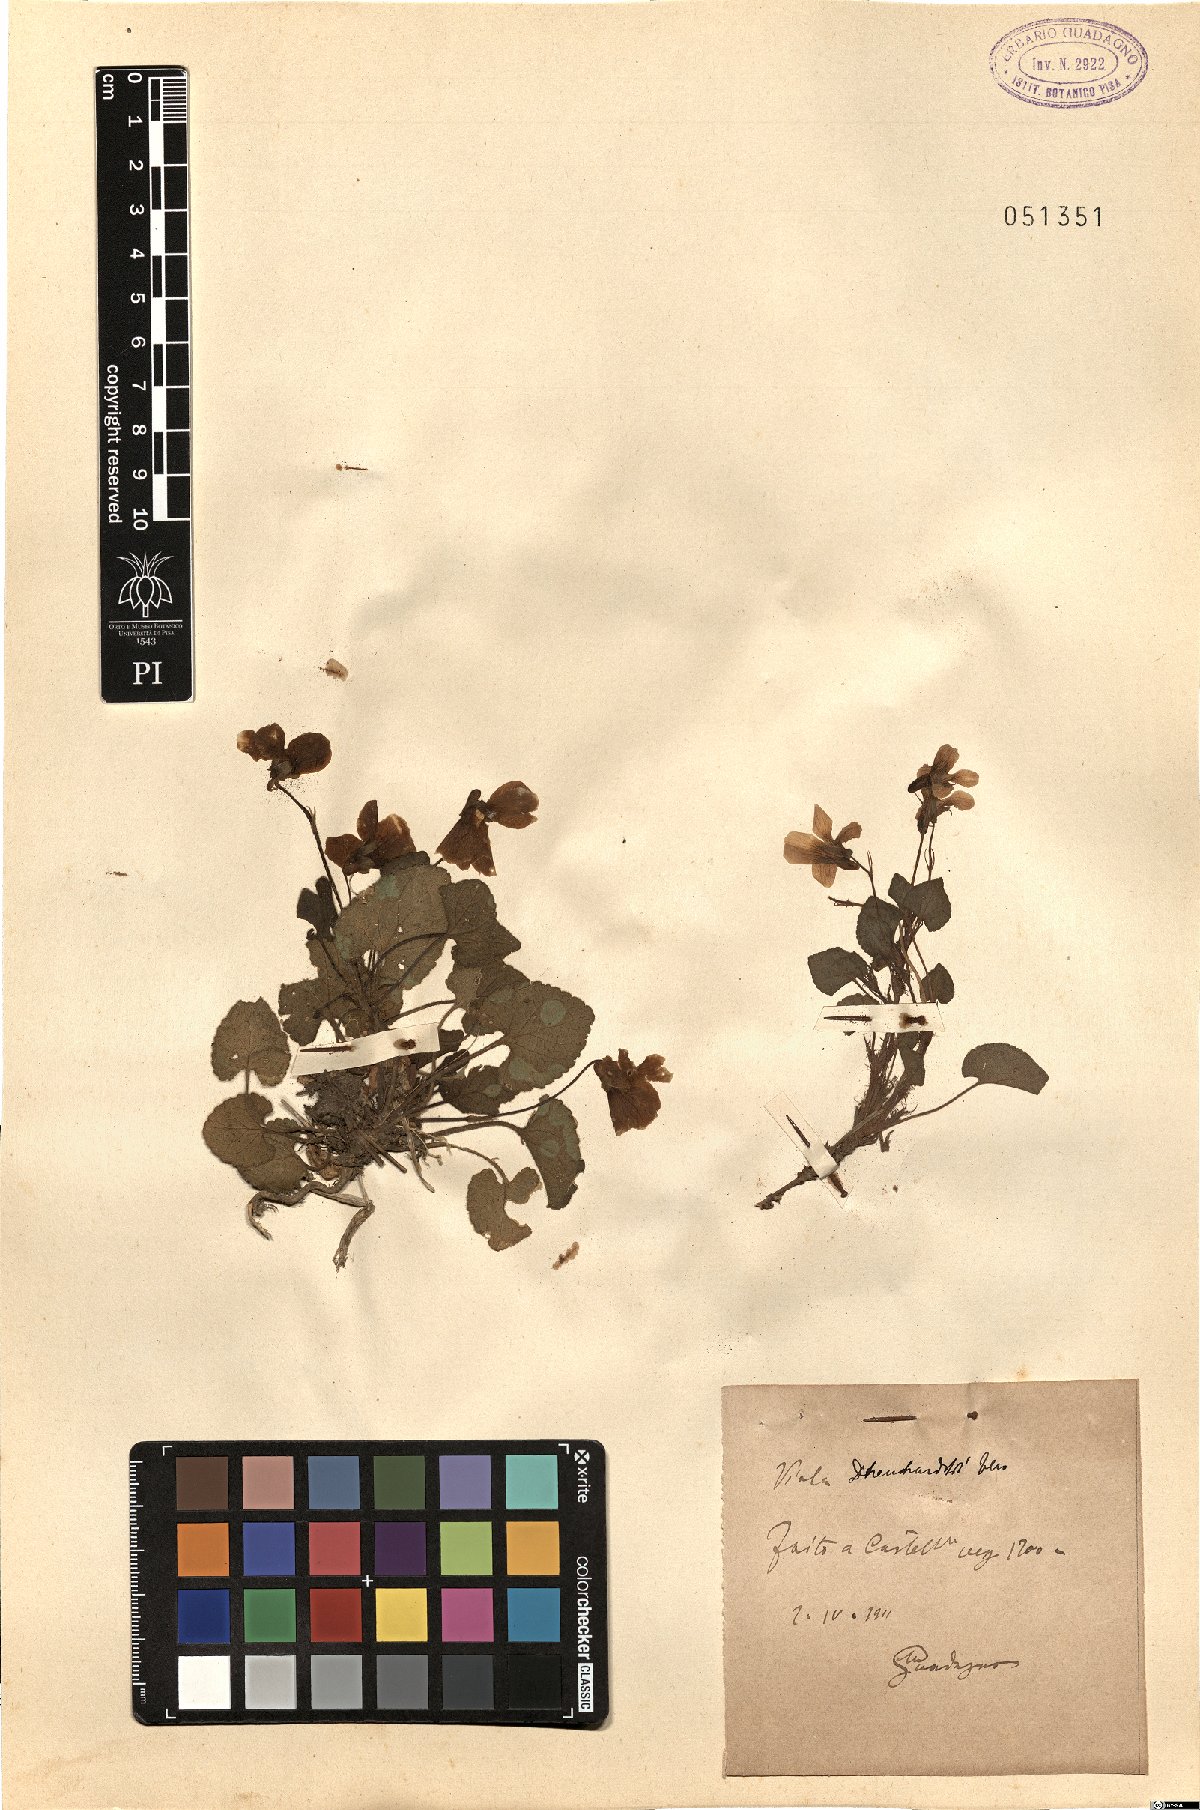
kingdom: Plantae
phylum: Tracheophyta
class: Magnoliopsida
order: Malpighiales
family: Violaceae
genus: Viola
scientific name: Viola alba
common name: White violet
